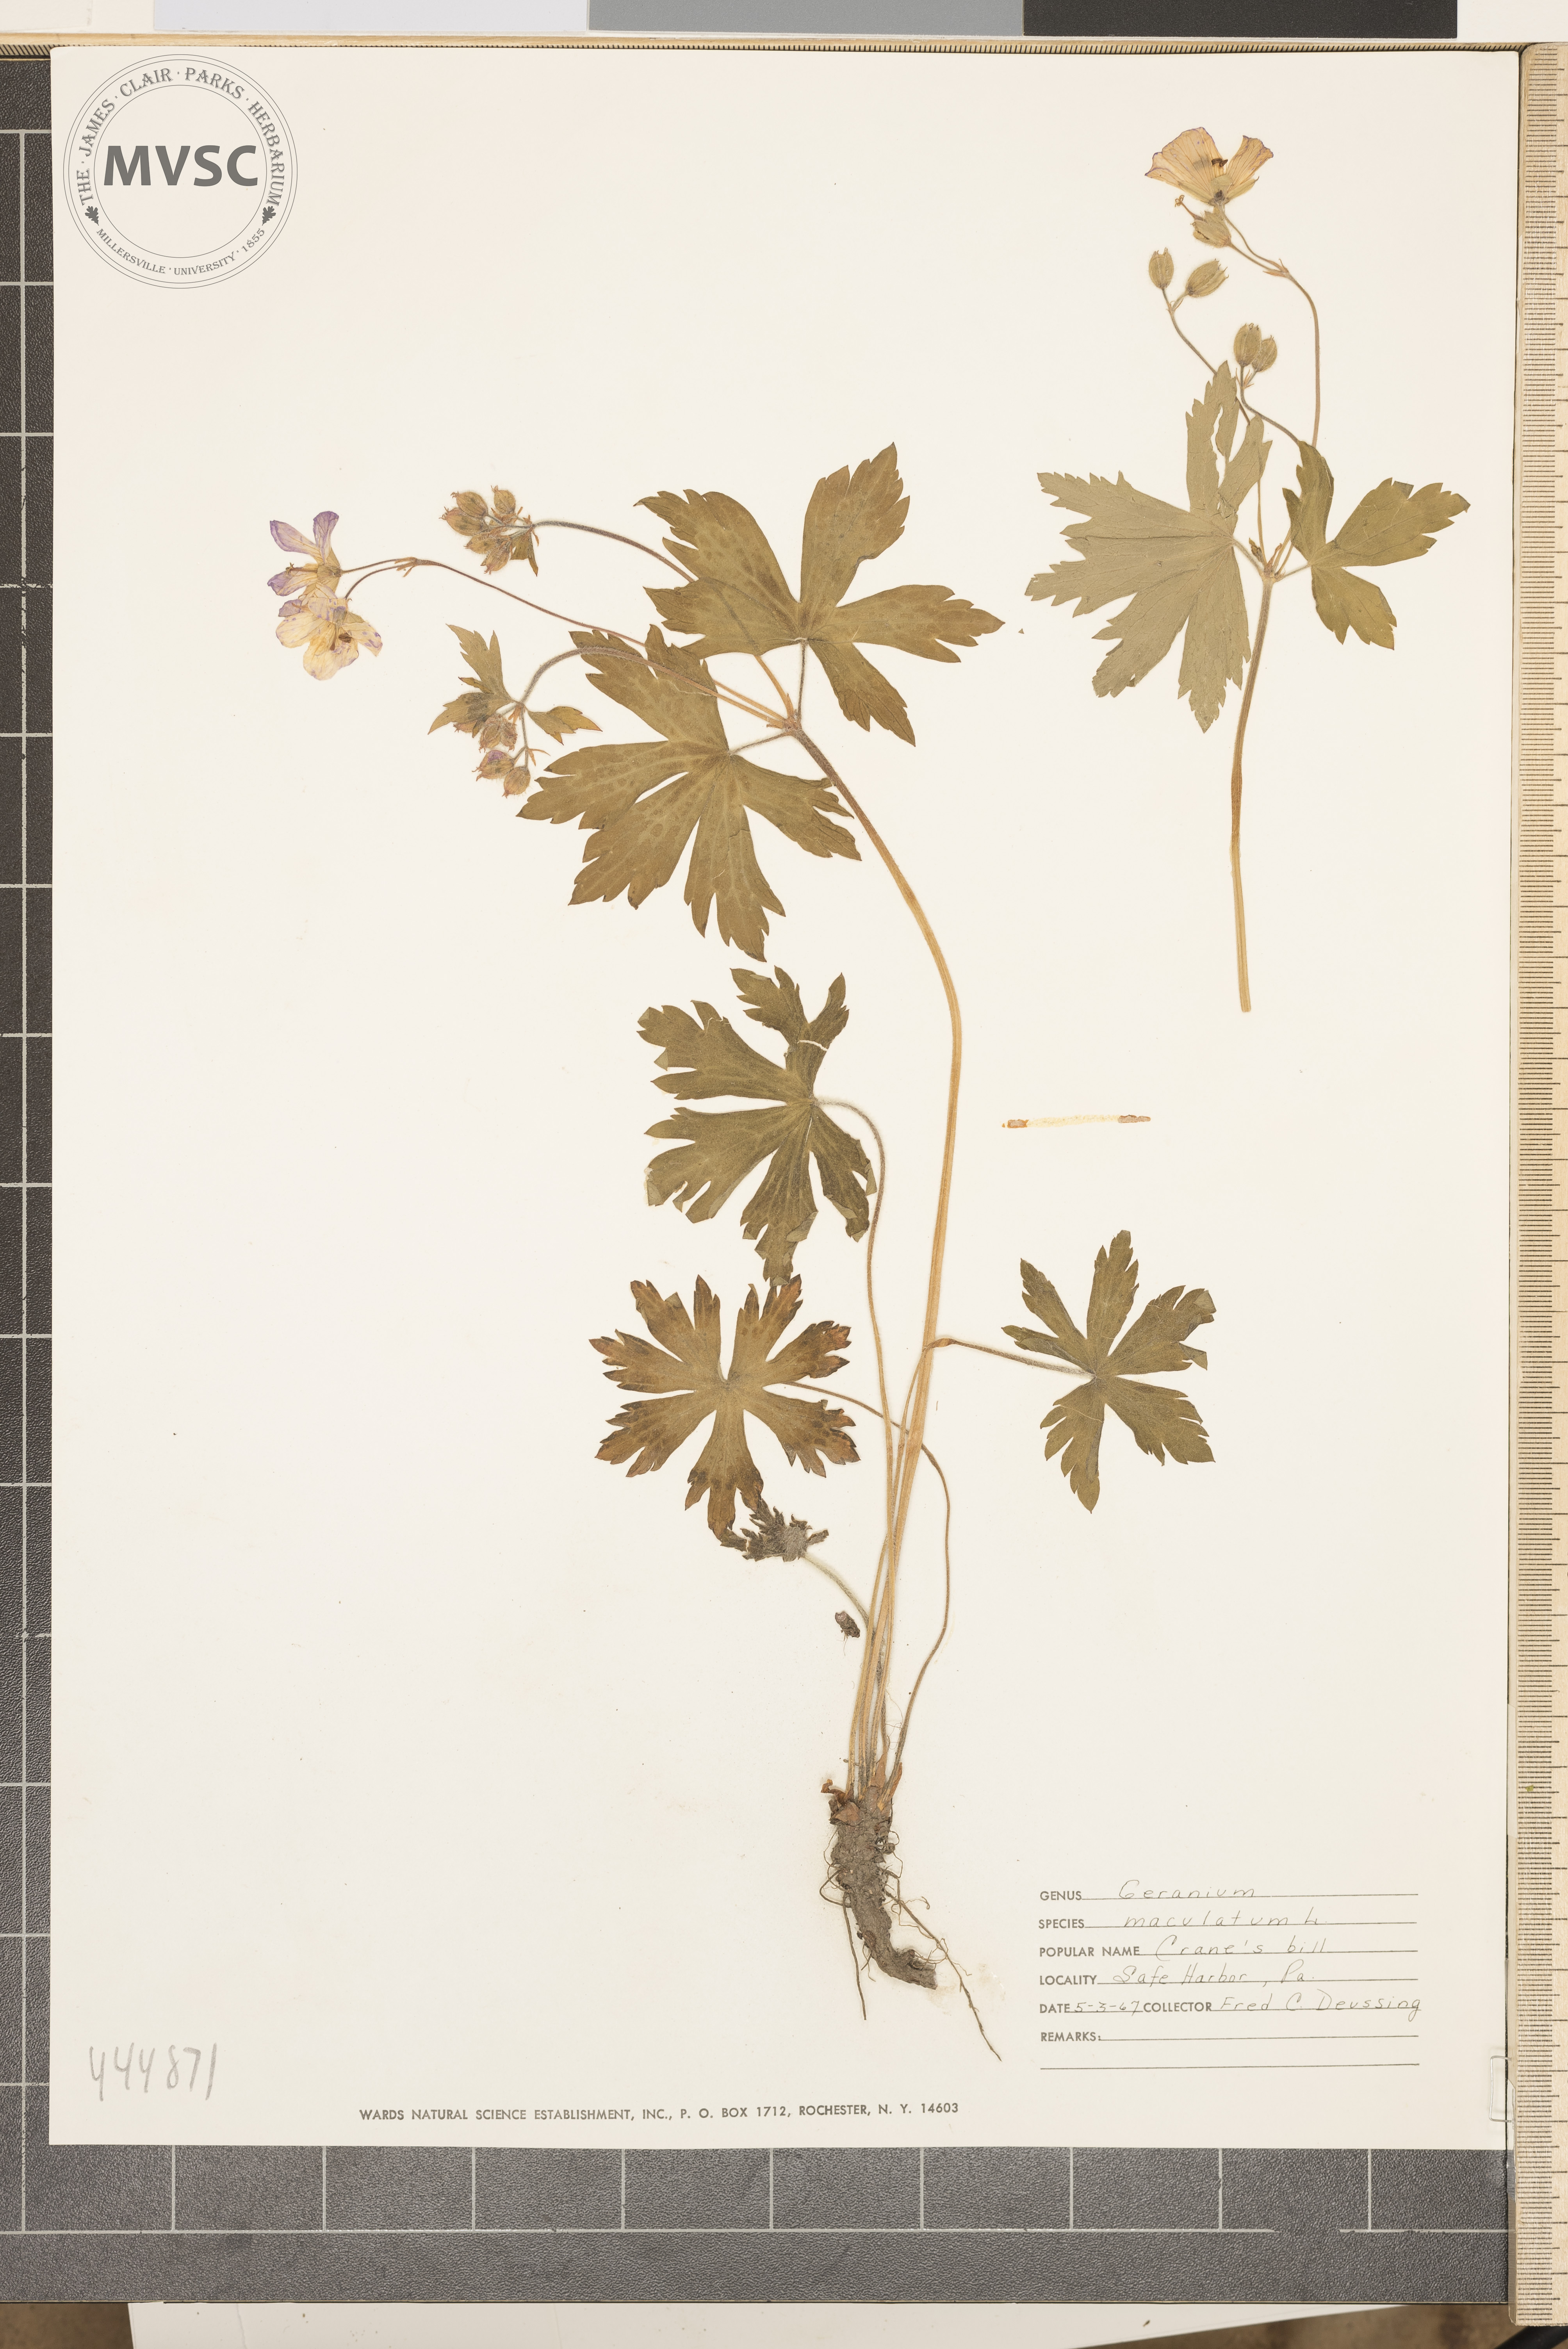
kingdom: Plantae
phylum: Tracheophyta
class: Magnoliopsida
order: Geraniales
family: Geraniaceae
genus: Geranium
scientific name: Geranium maculatum
